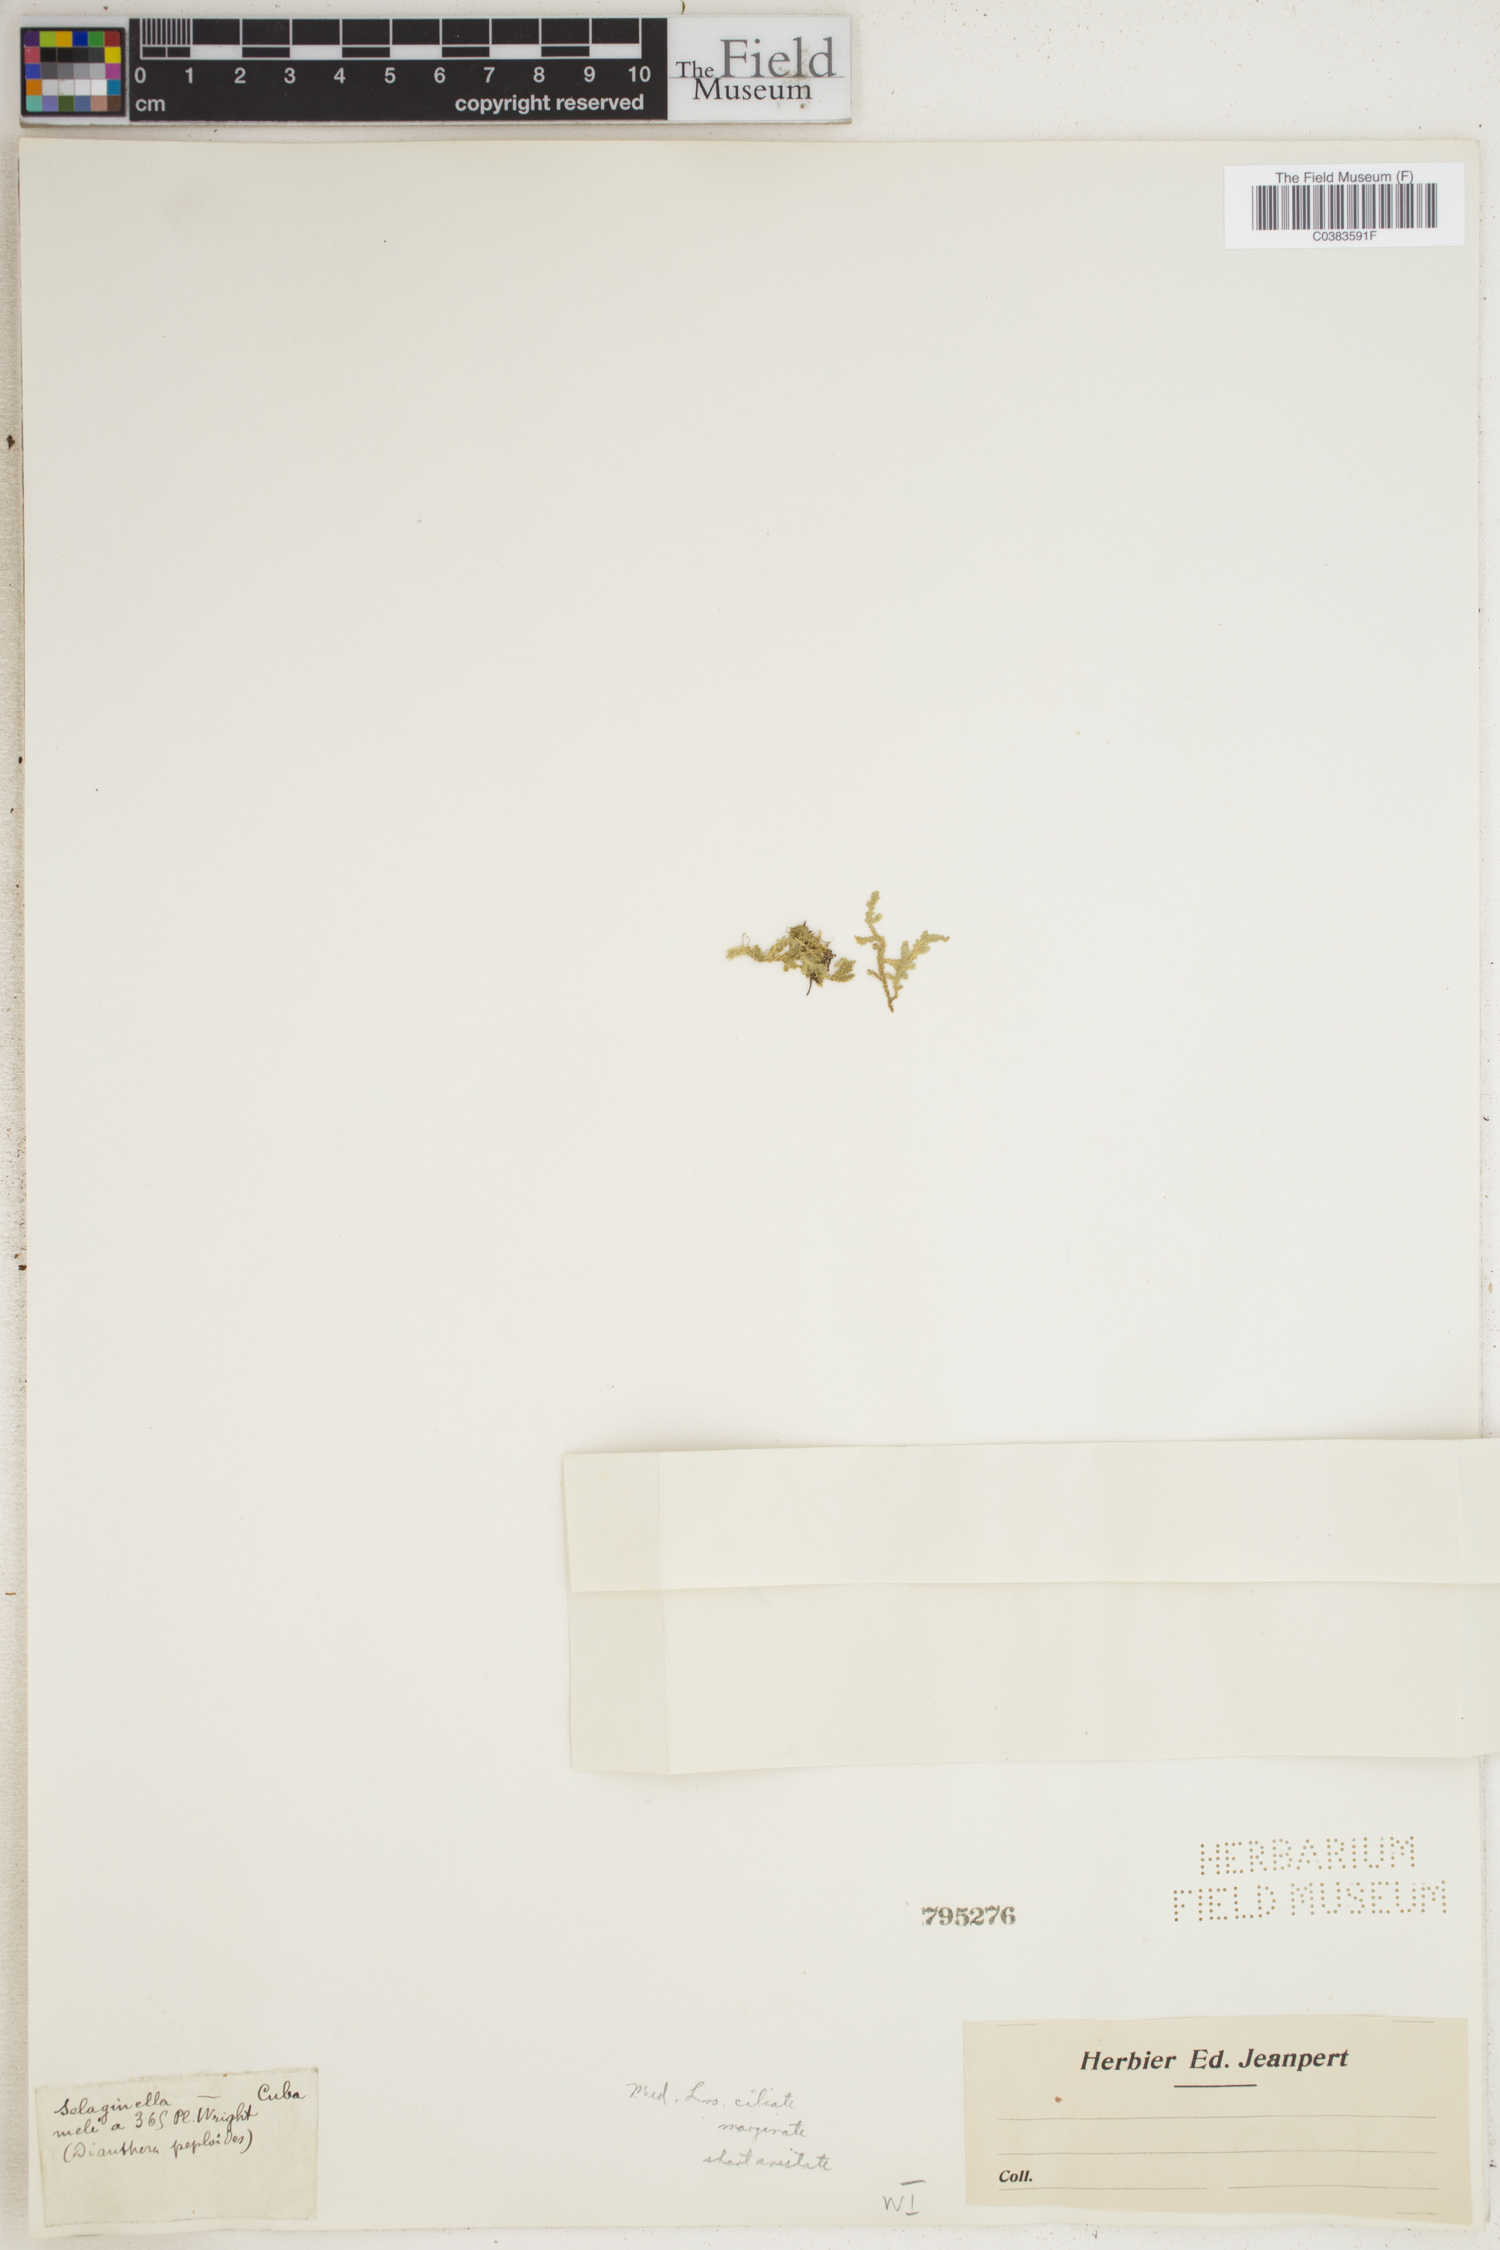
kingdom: Plantae
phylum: Tracheophyta
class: Lycopodiopsida
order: Selaginellales
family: Selaginellaceae
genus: Selaginella
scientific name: Selaginella
